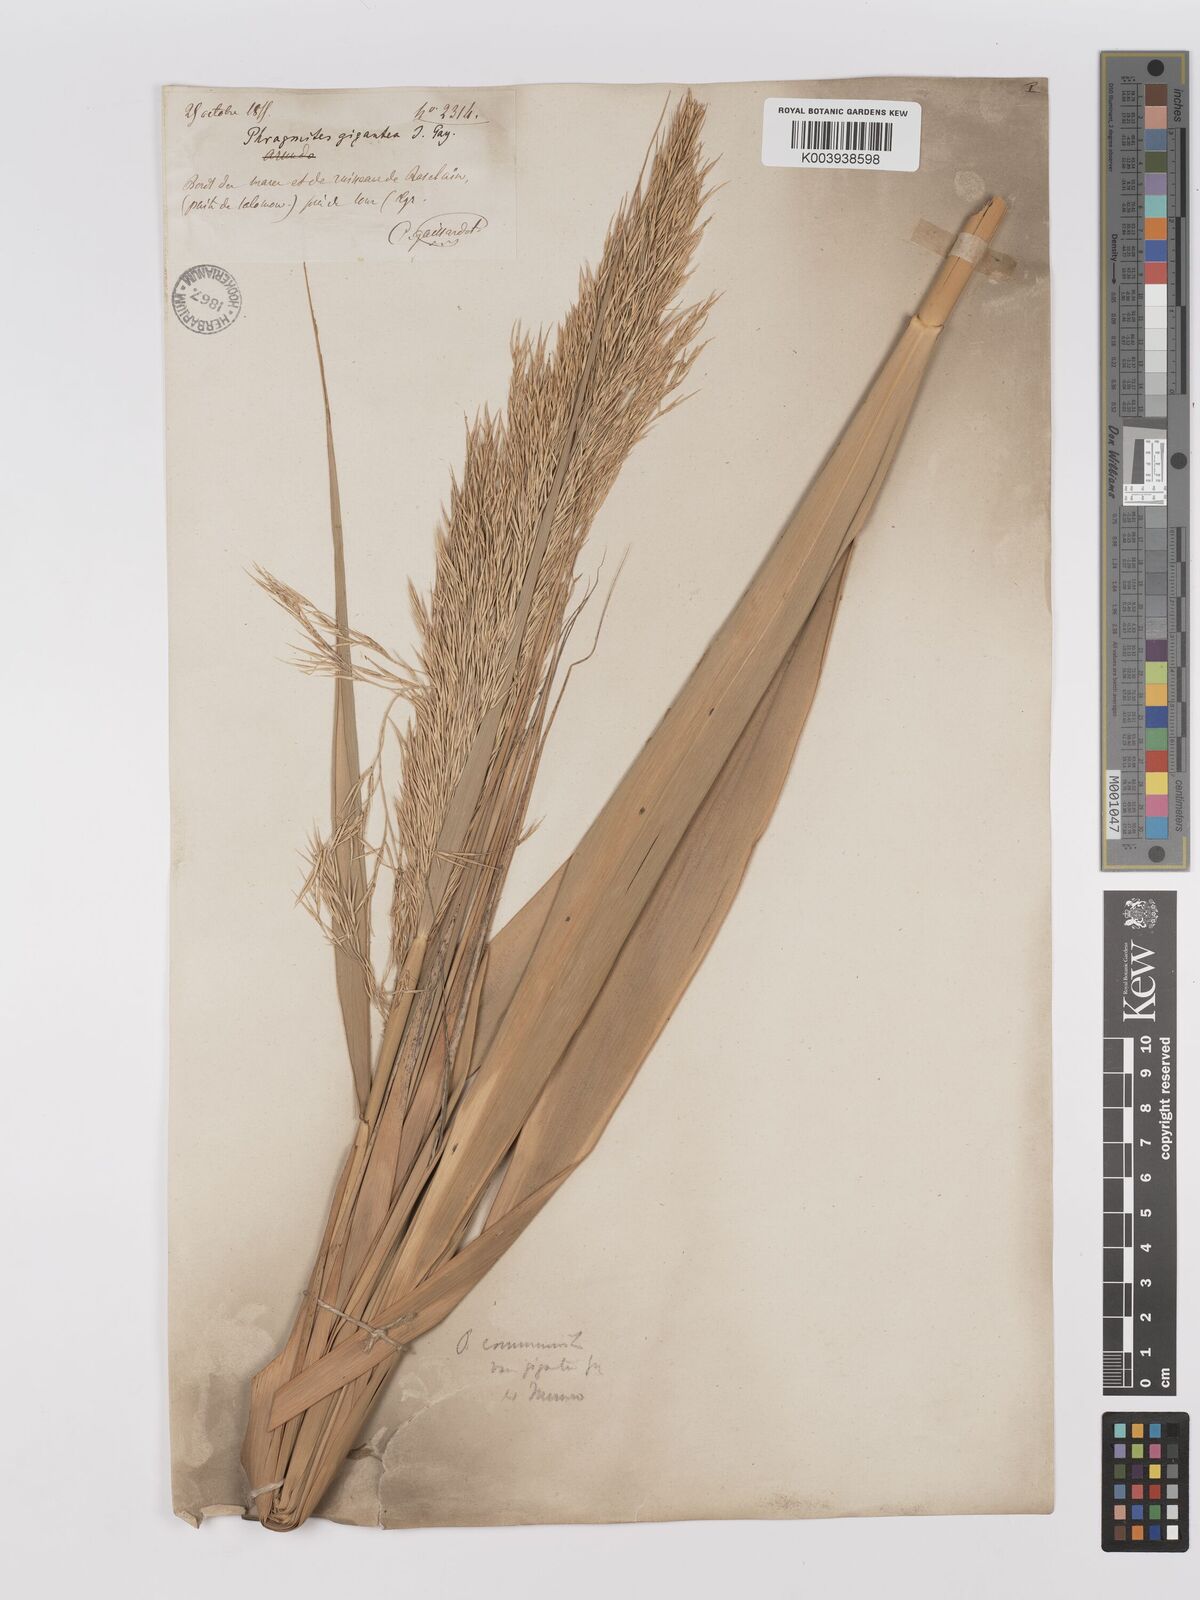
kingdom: Plantae
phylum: Tracheophyta
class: Liliopsida
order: Poales
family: Poaceae
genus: Phragmites
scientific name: Phragmites
